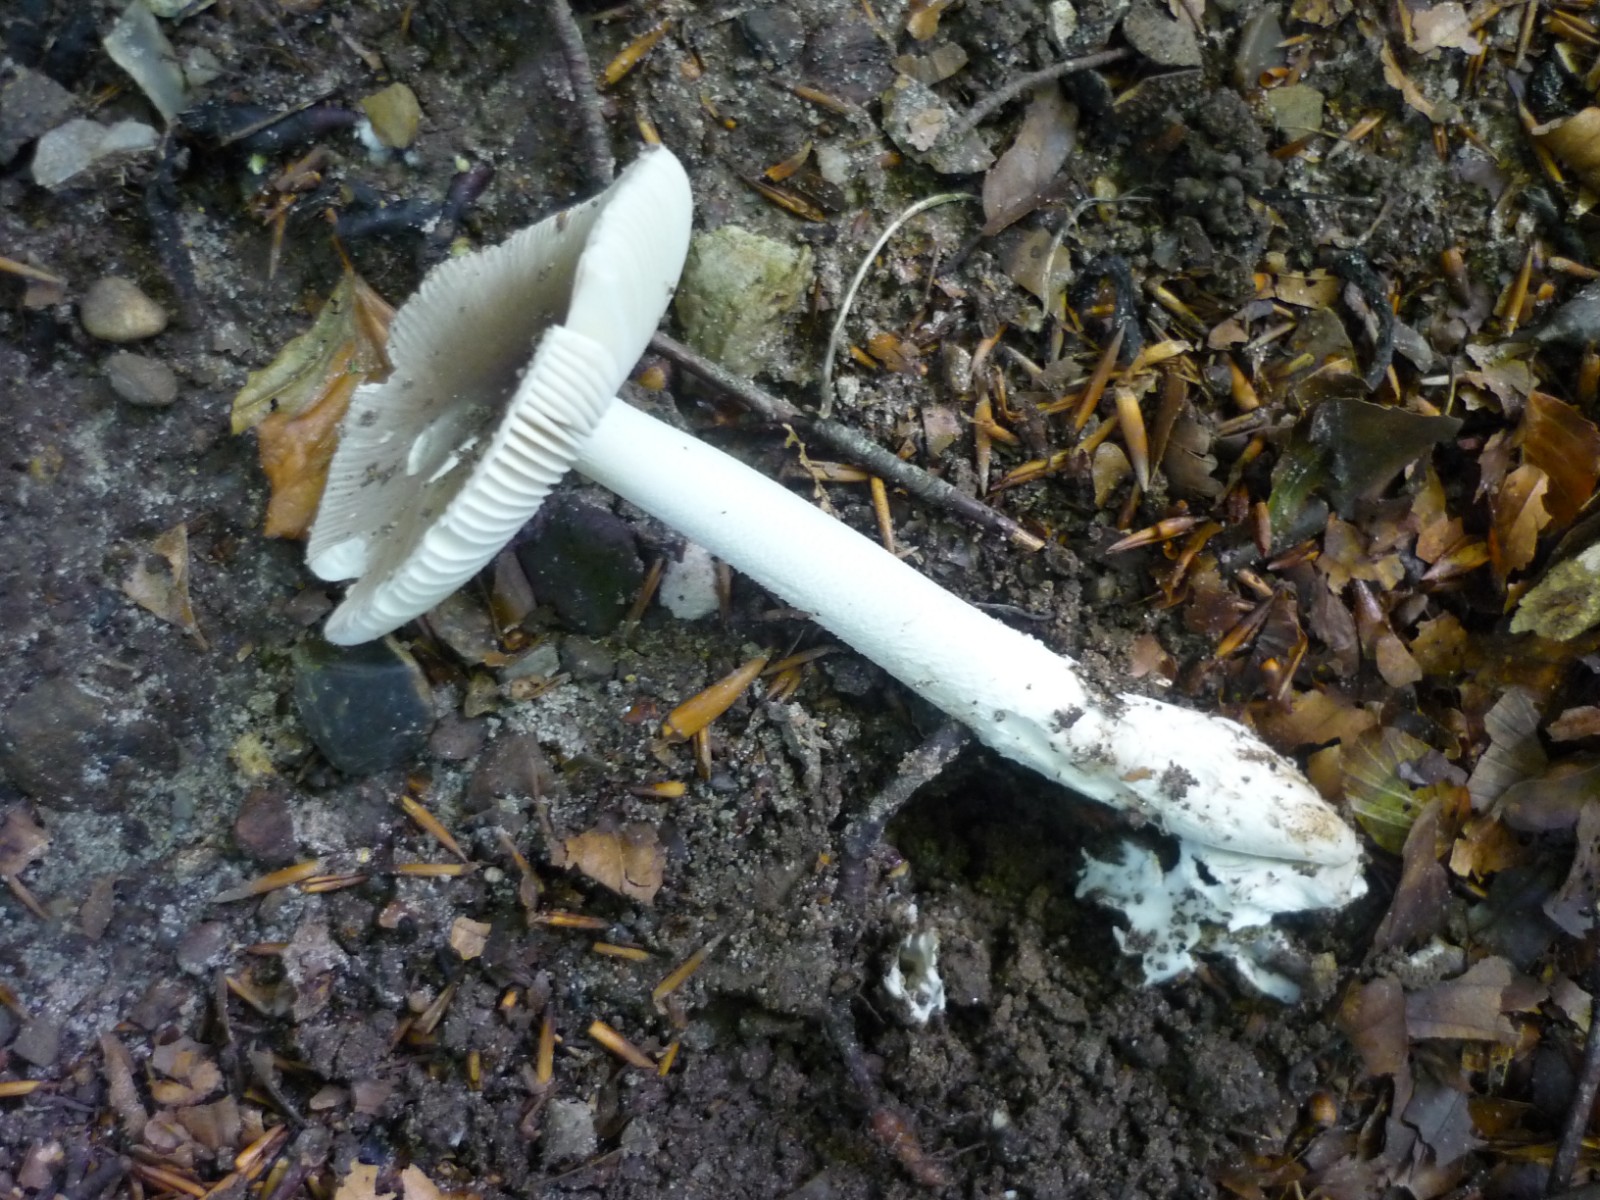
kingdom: Fungi
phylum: Basidiomycota
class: Agaricomycetes
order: Agaricales
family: Amanitaceae
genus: Amanita
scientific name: Amanita vaginata
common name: grå kam-fluesvamp
